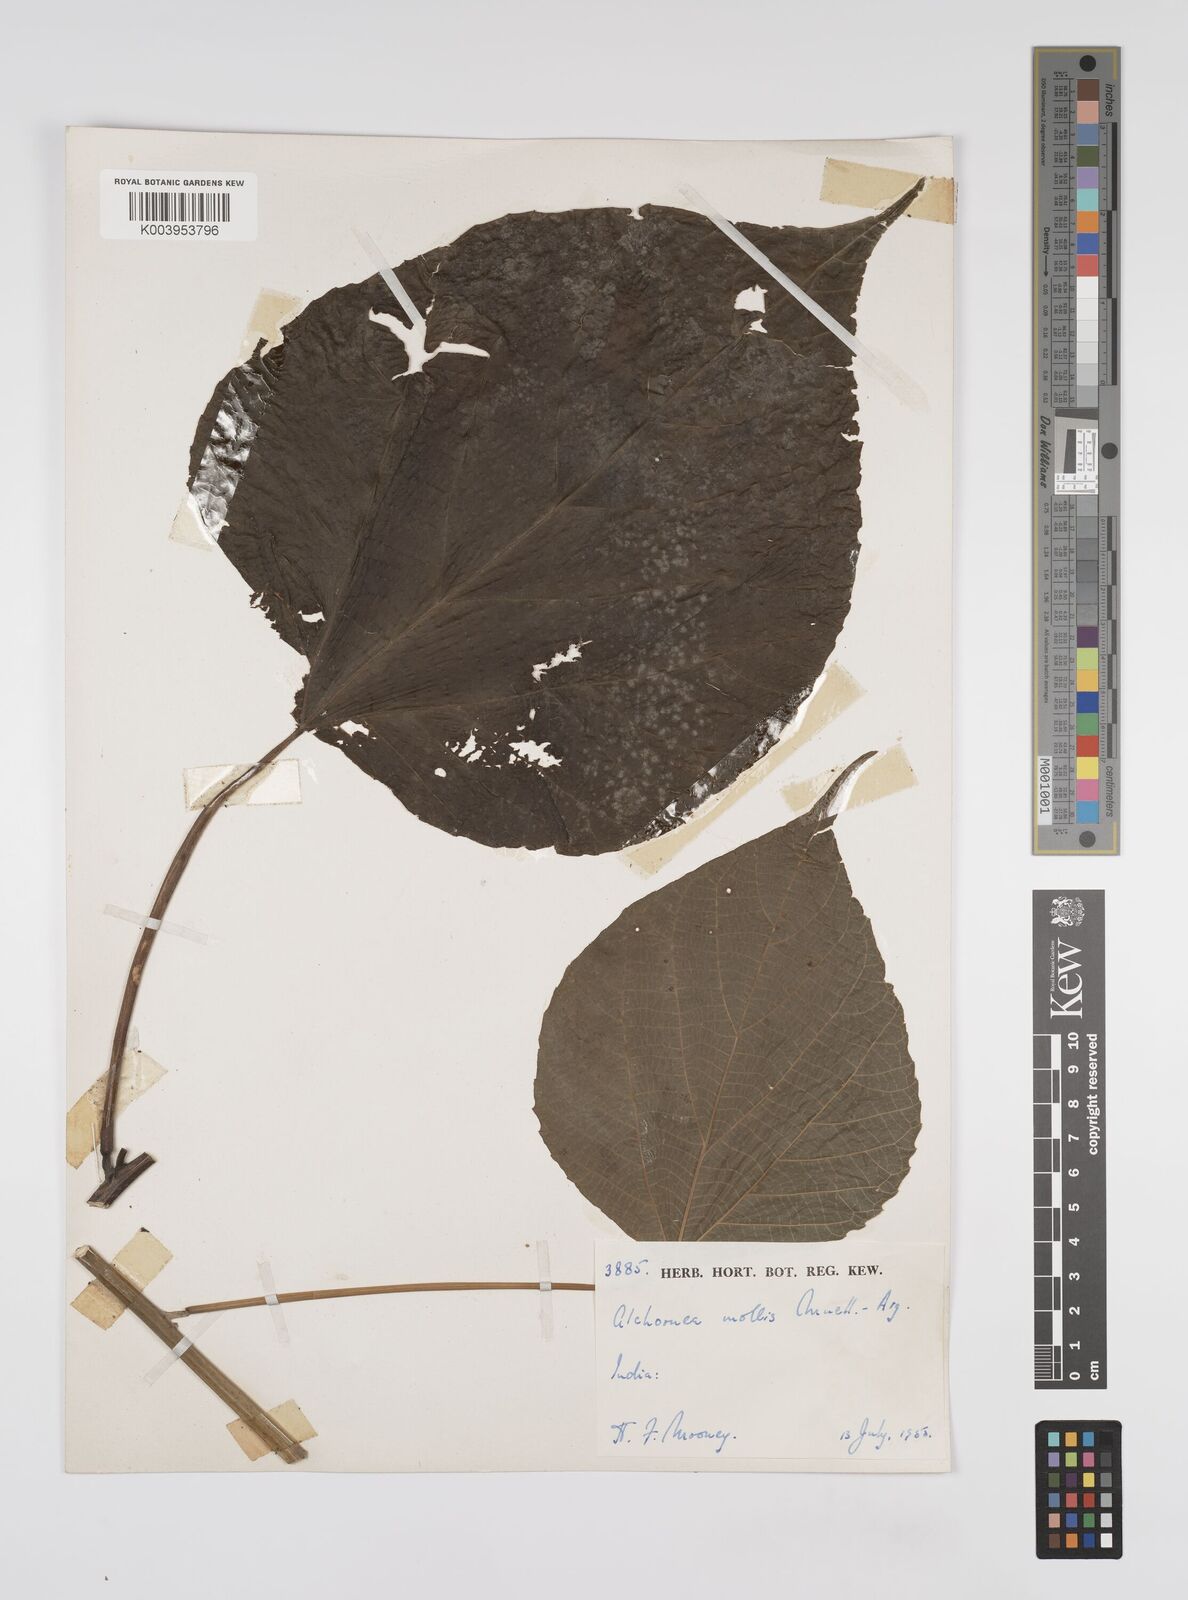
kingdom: Plantae
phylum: Tracheophyta
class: Magnoliopsida
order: Malpighiales
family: Euphorbiaceae
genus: Alchornea
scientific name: Alchornea mollis
